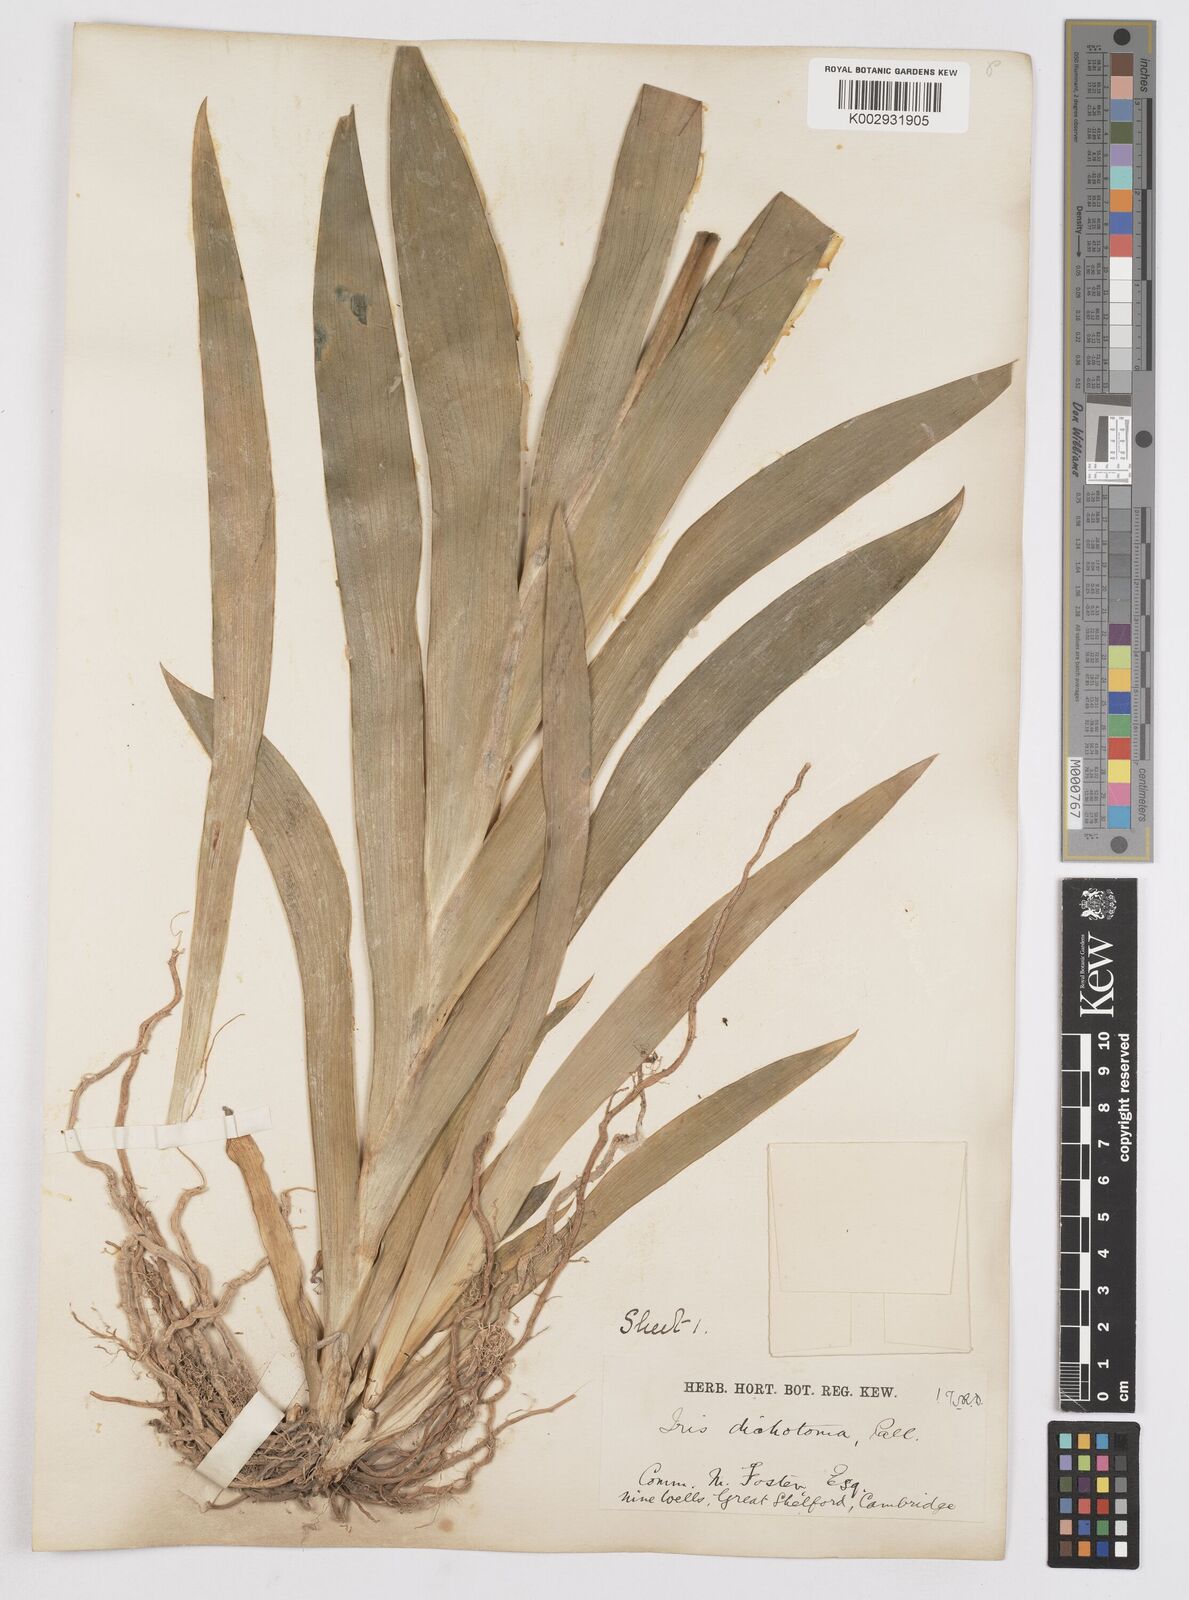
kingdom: Plantae
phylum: Tracheophyta
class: Liliopsida
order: Asparagales
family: Iridaceae
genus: Iris
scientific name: Iris dichotoma
